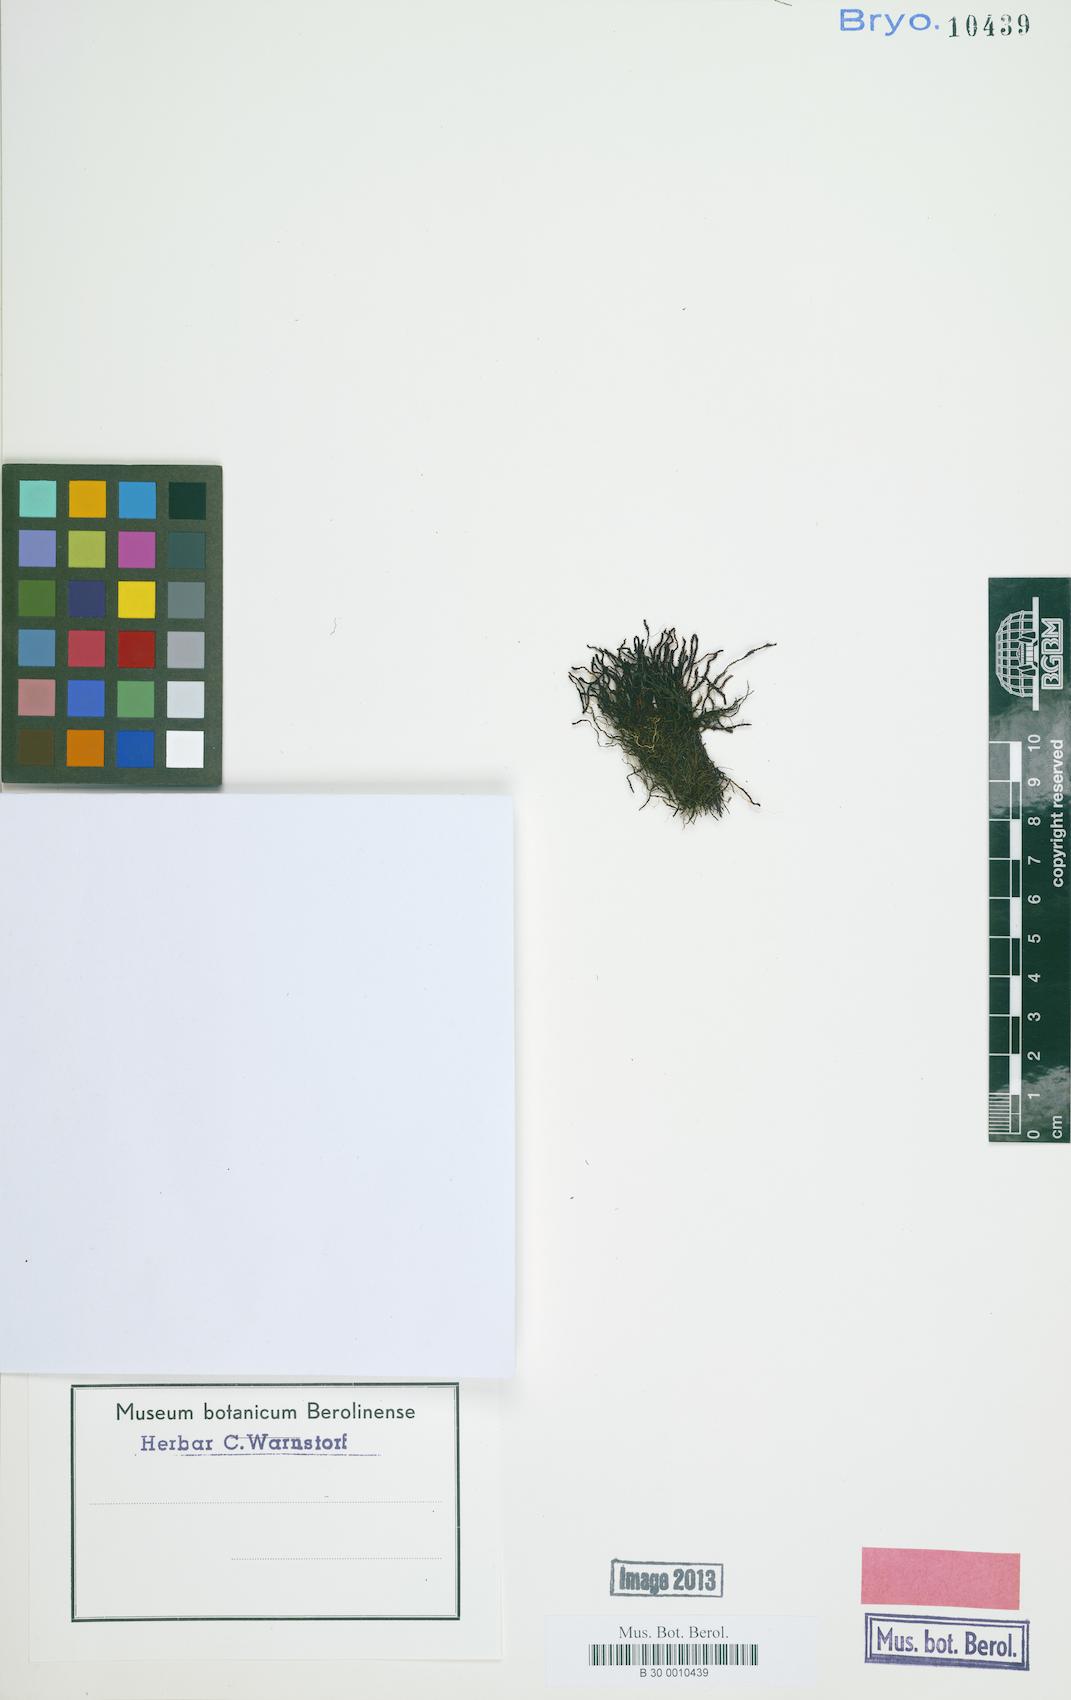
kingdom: Plantae
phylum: Marchantiophyta
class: Jungermanniopsida
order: Jungermanniales
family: Gymnomitriaceae
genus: Marsupella
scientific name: Marsupella emarginata
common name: Notched rustwort
